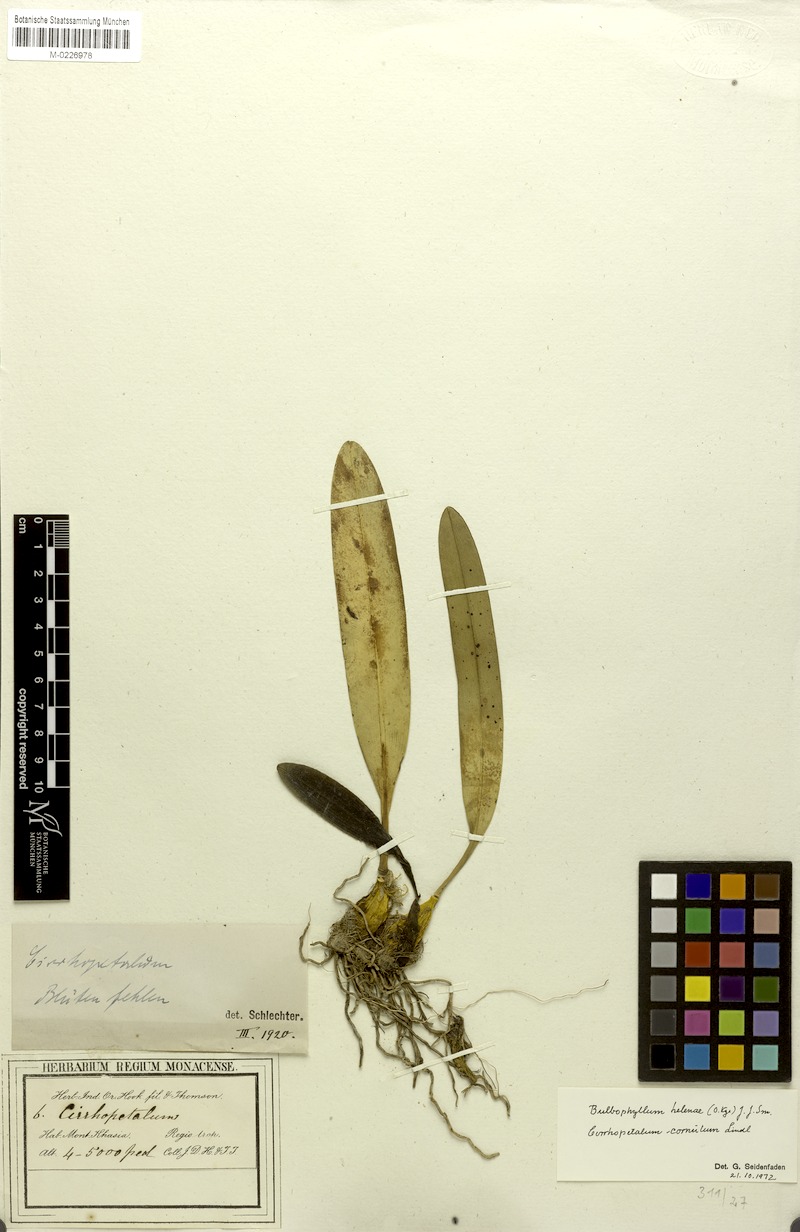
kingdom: Plantae
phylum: Tracheophyta
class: Liliopsida
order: Asparagales
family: Orchidaceae
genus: Bulbophyllum
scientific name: Bulbophyllum helenae
